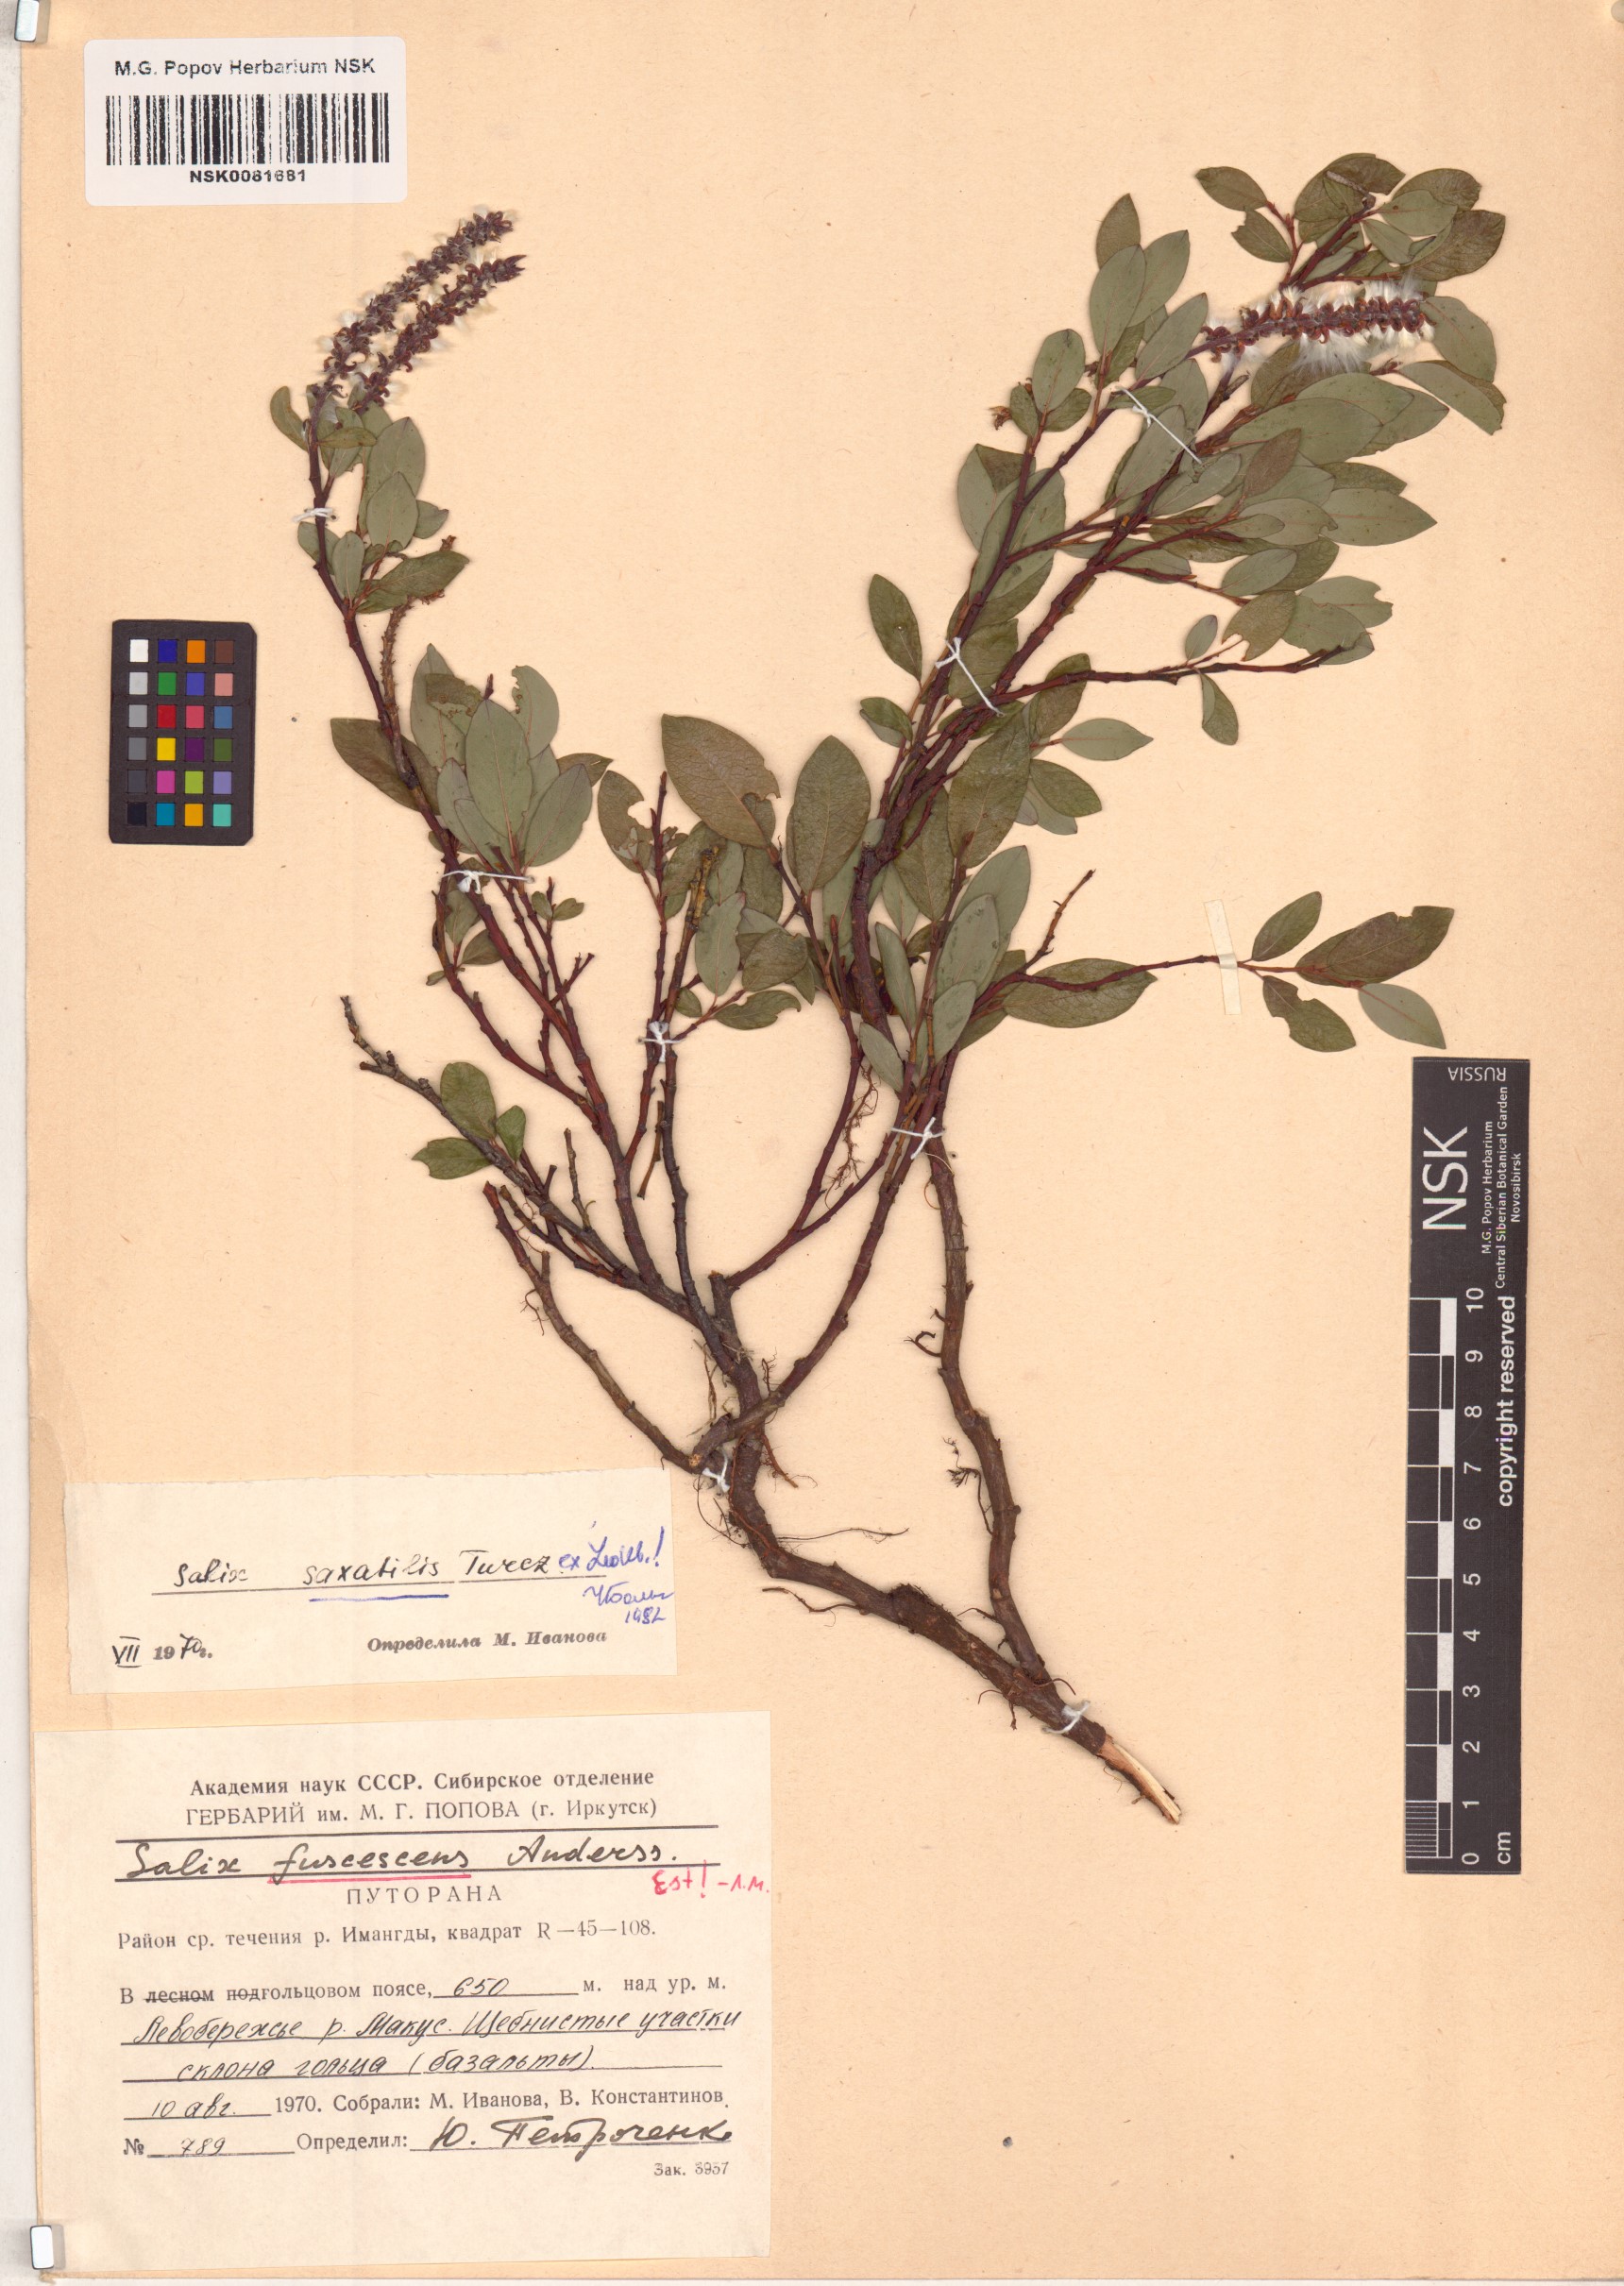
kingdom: Plantae
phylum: Tracheophyta
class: Magnoliopsida
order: Malpighiales
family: Salicaceae
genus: Salix
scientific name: Salix saxatilis
